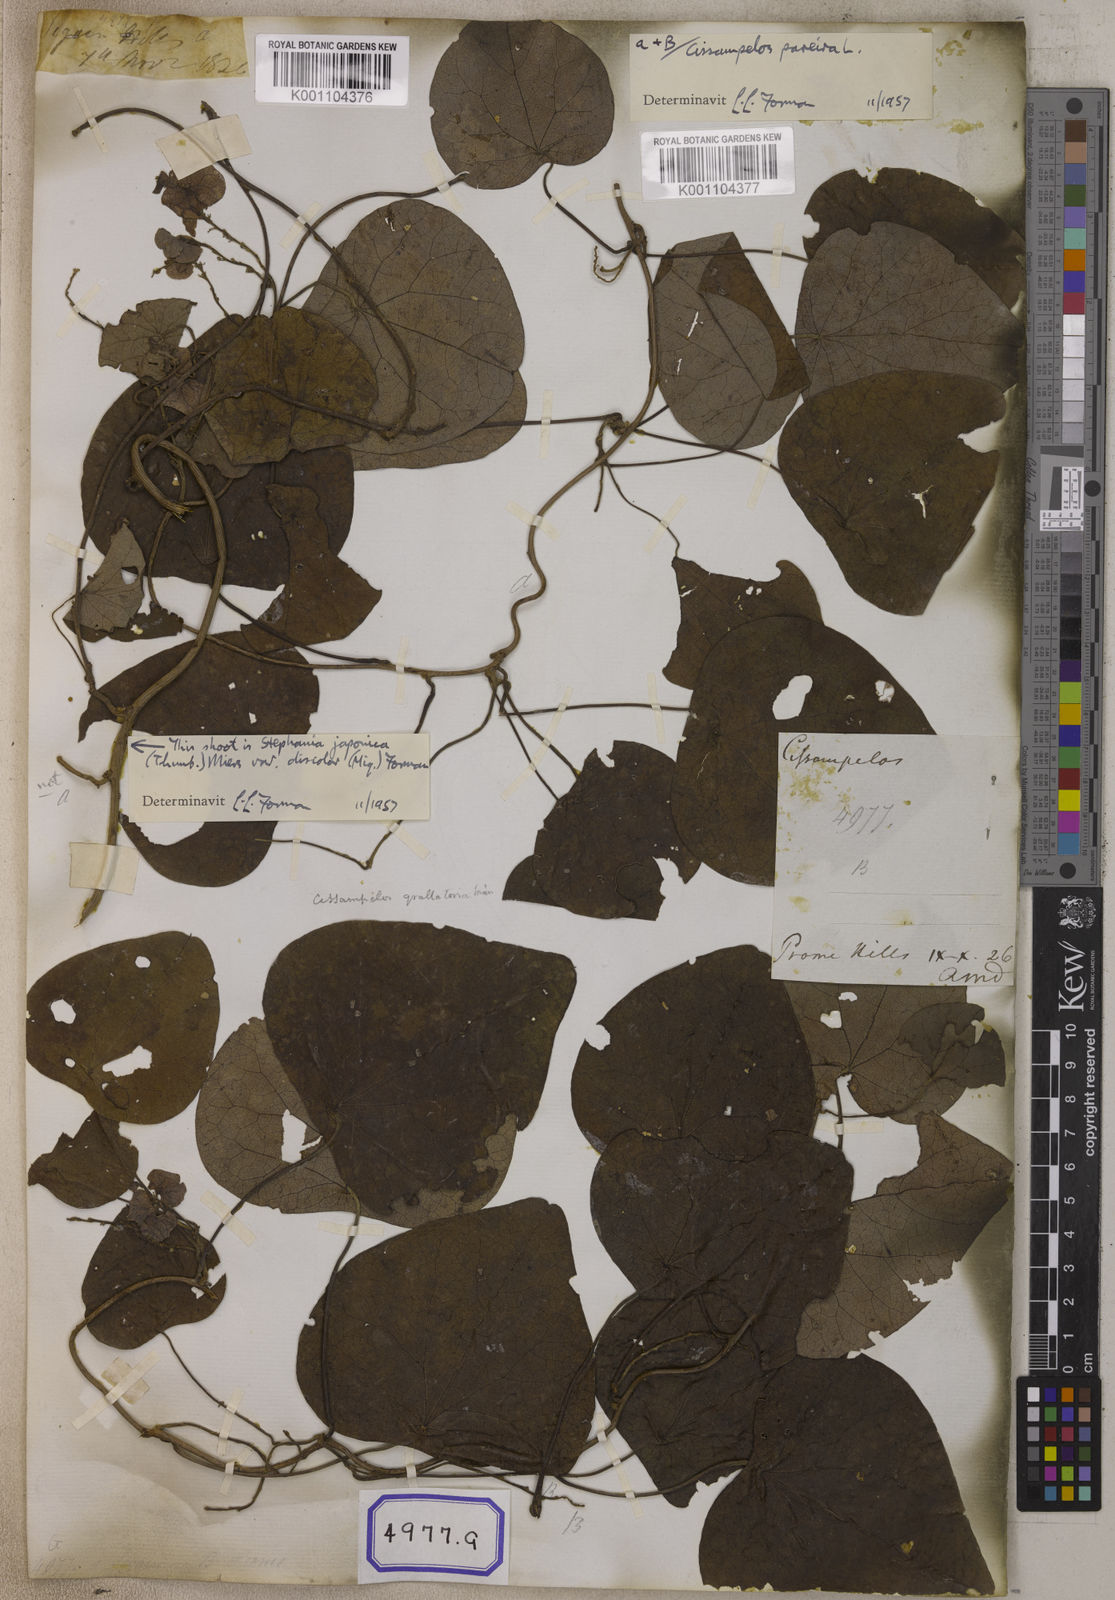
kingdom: Plantae
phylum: Tracheophyta
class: Magnoliopsida
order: Ranunculales
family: Menispermaceae
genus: Stephania
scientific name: Stephania japonica
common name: Snake vine
